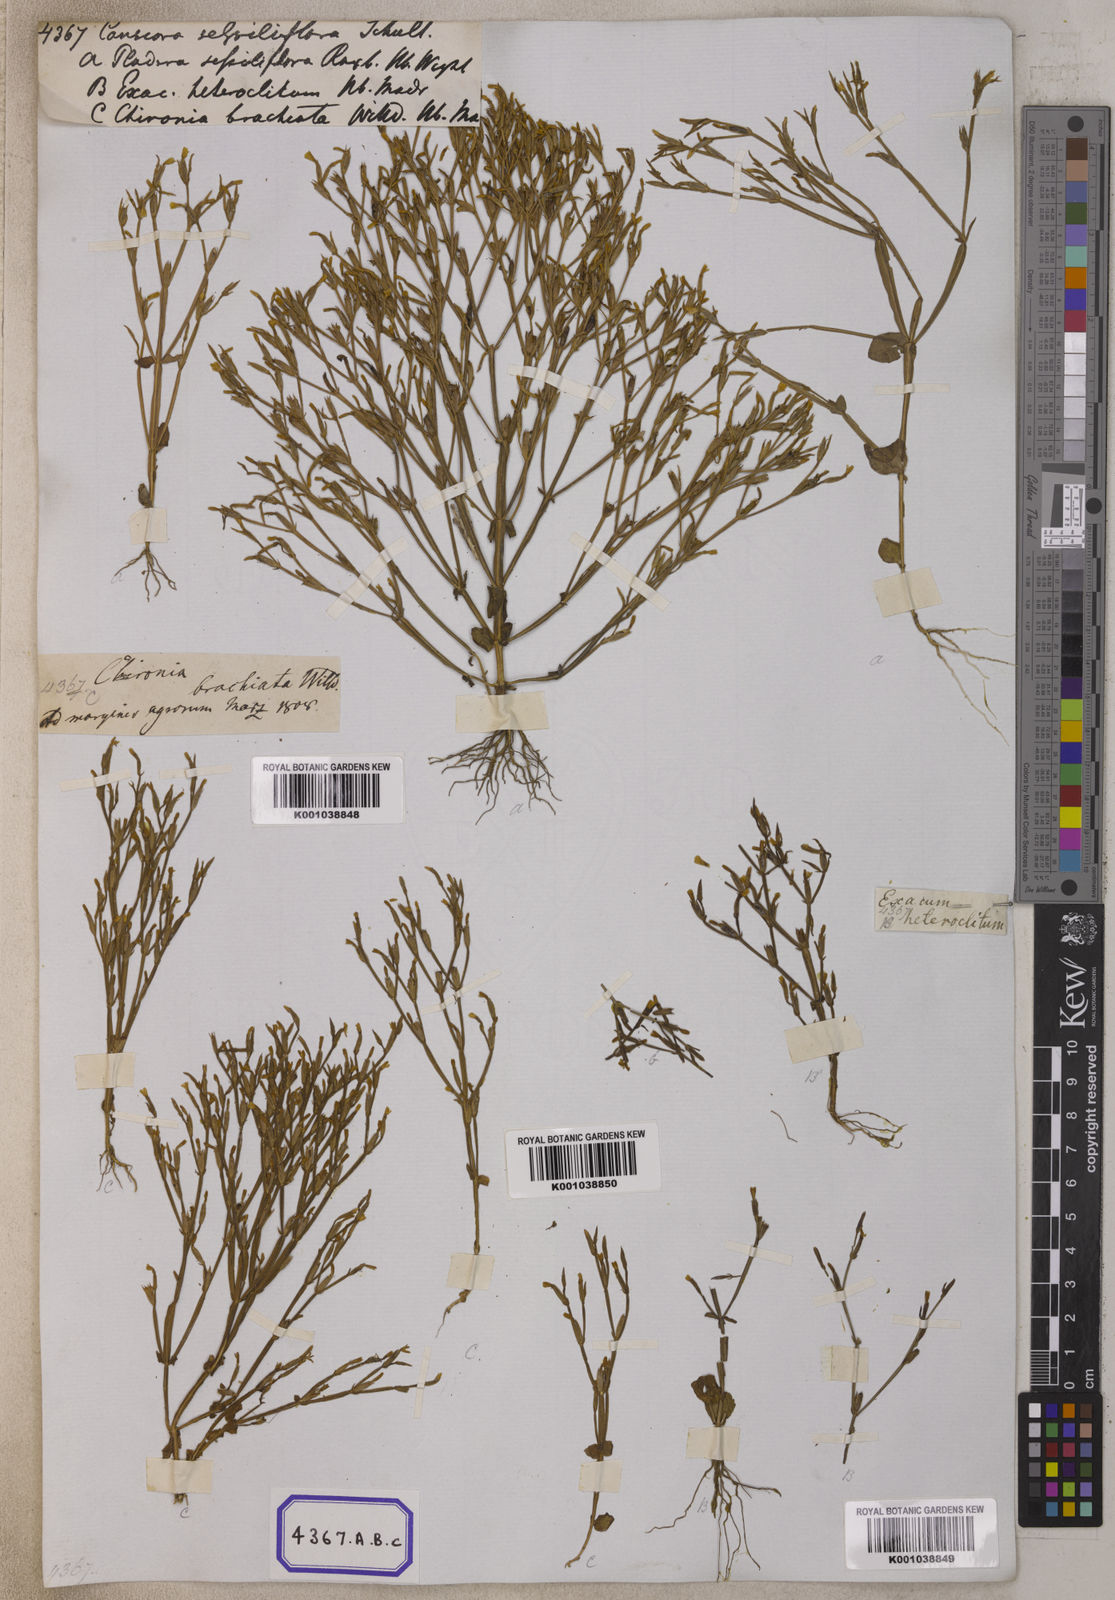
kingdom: Plantae
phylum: Tracheophyta
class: Magnoliopsida
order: Gentianales
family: Gentianaceae
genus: Canscora
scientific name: Canscora
